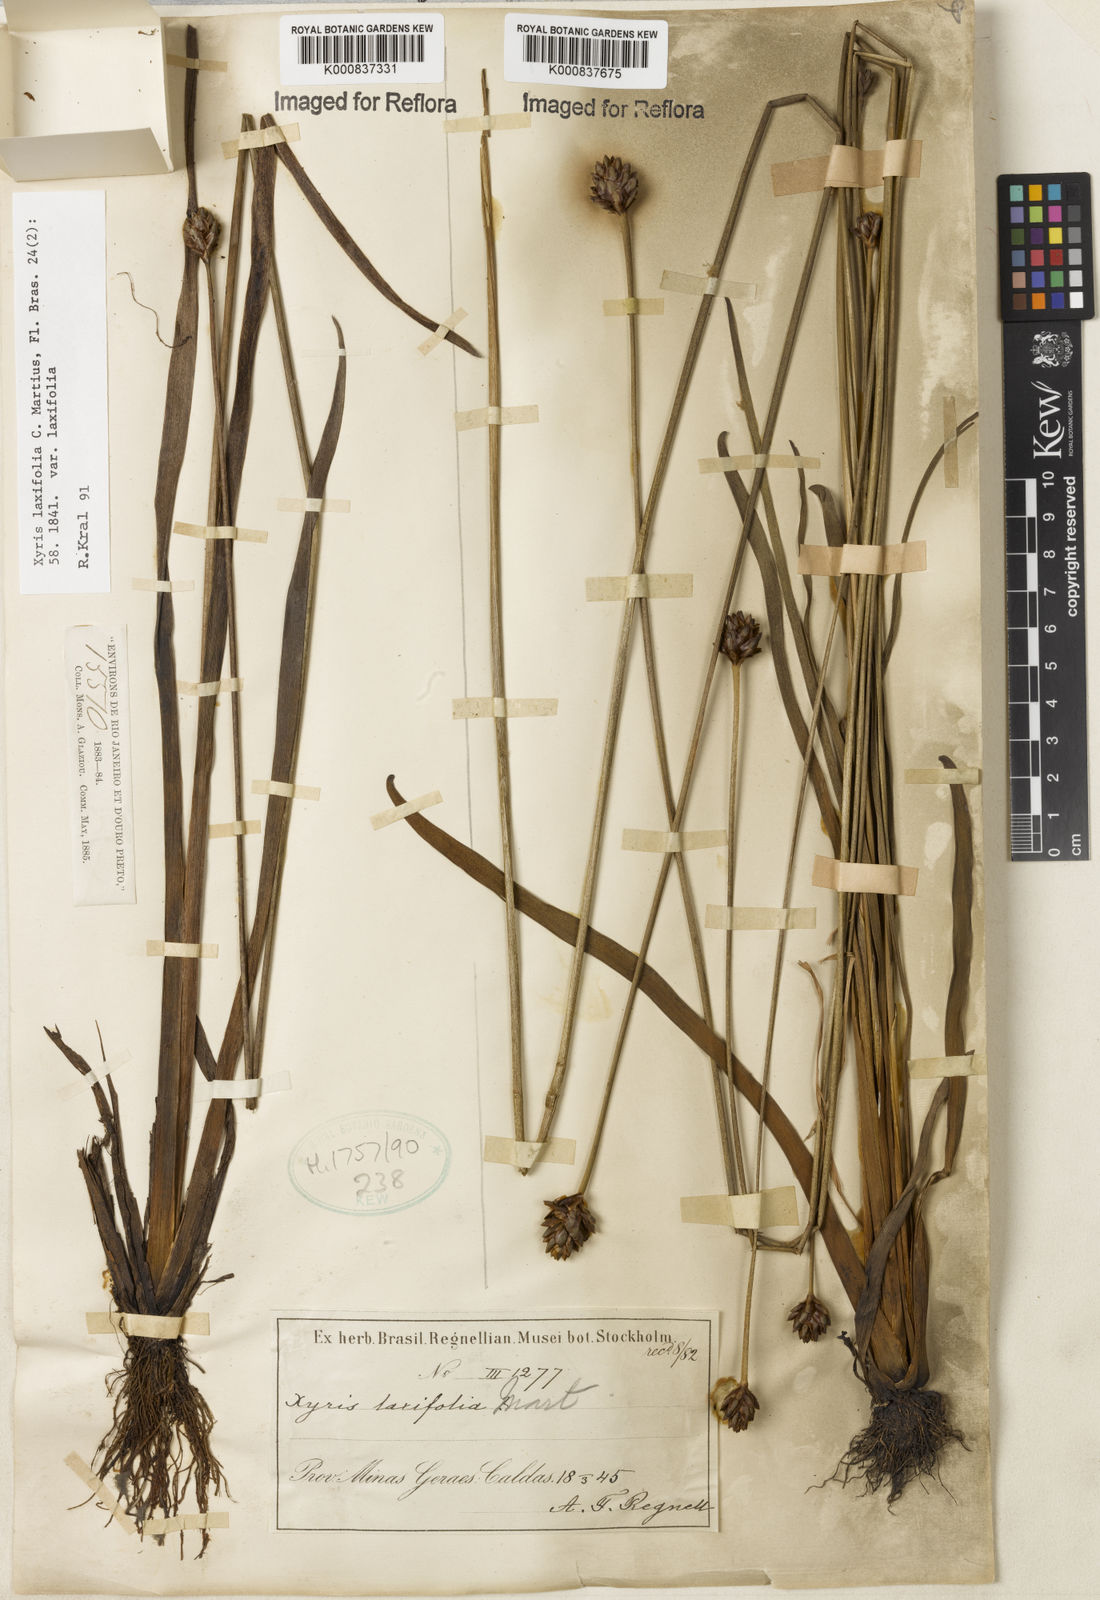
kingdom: Plantae
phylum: Tracheophyta
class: Liliopsida
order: Poales
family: Xyridaceae
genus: Xyris
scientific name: Xyris laxifolia
